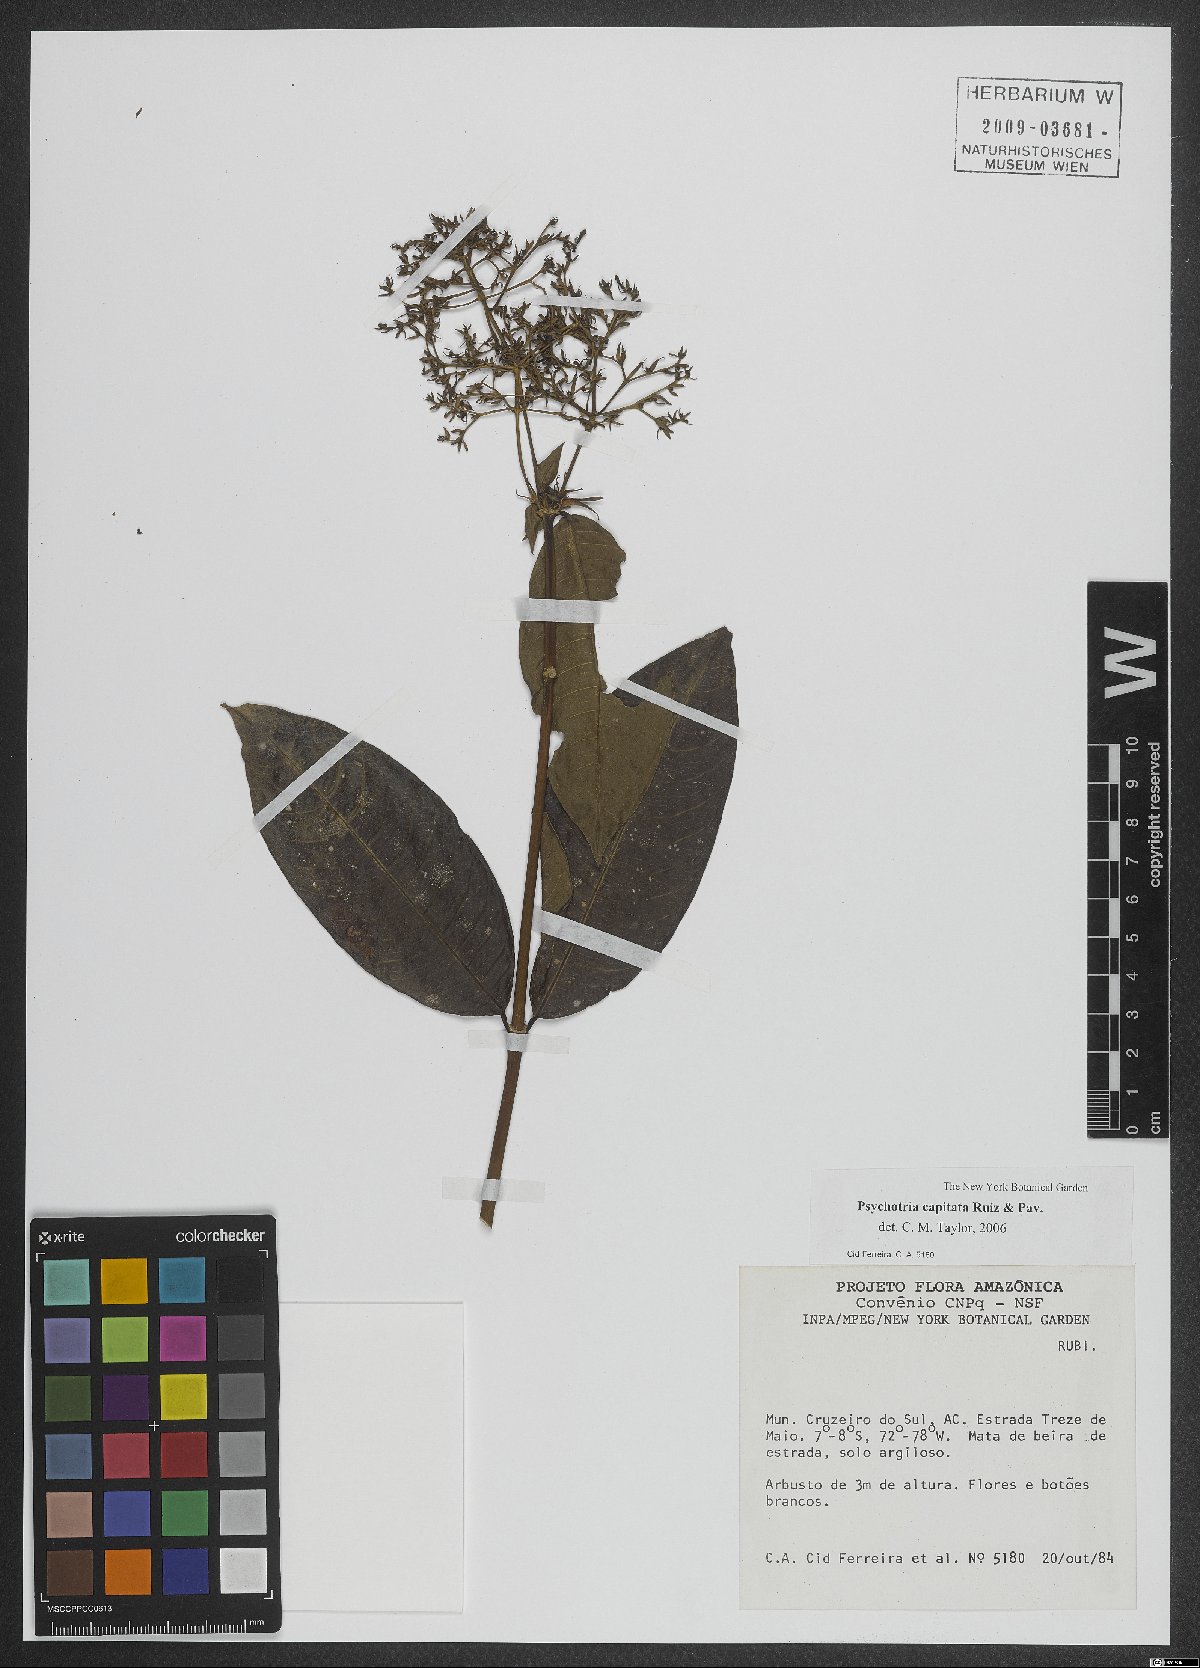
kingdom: Plantae
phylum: Tracheophyta
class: Magnoliopsida
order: Gentianales
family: Rubiaceae
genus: Palicourea
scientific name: Palicourea violacea
